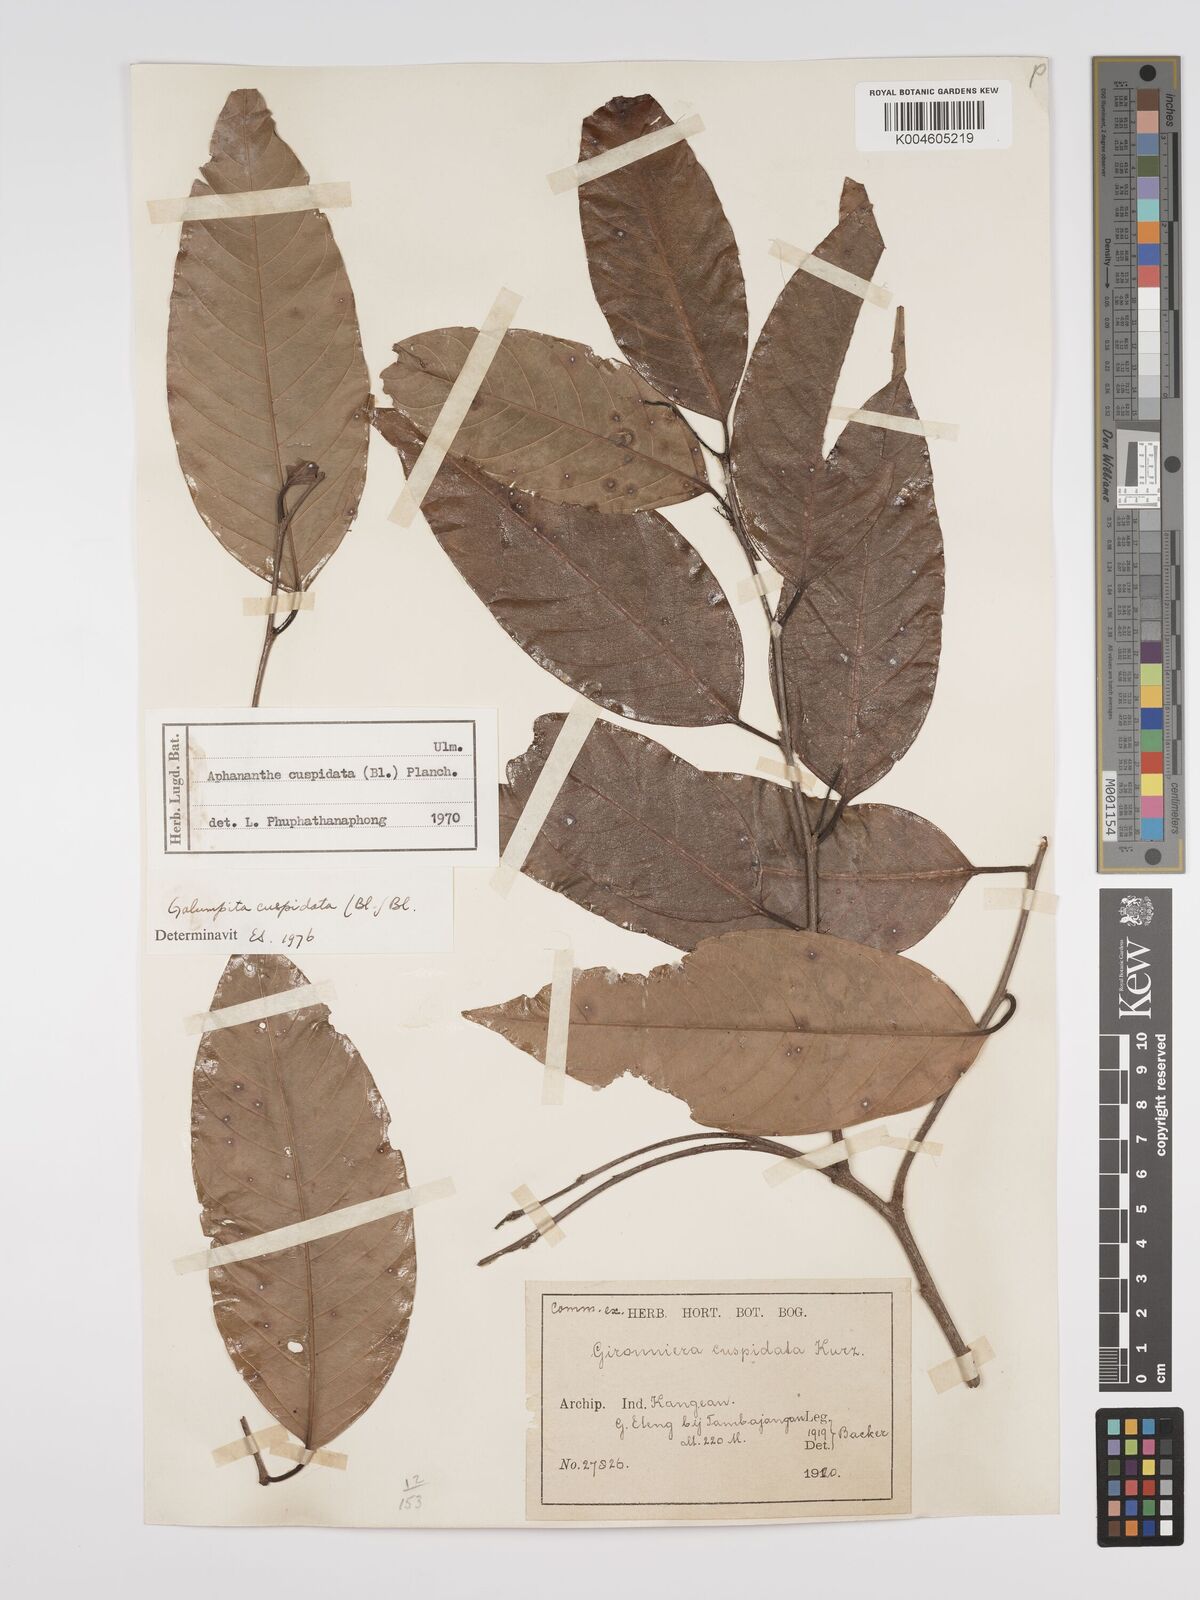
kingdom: Plantae
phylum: Tracheophyta
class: Magnoliopsida
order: Rosales
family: Cannabaceae
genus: Aphananthe
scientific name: Aphananthe cuspidata
